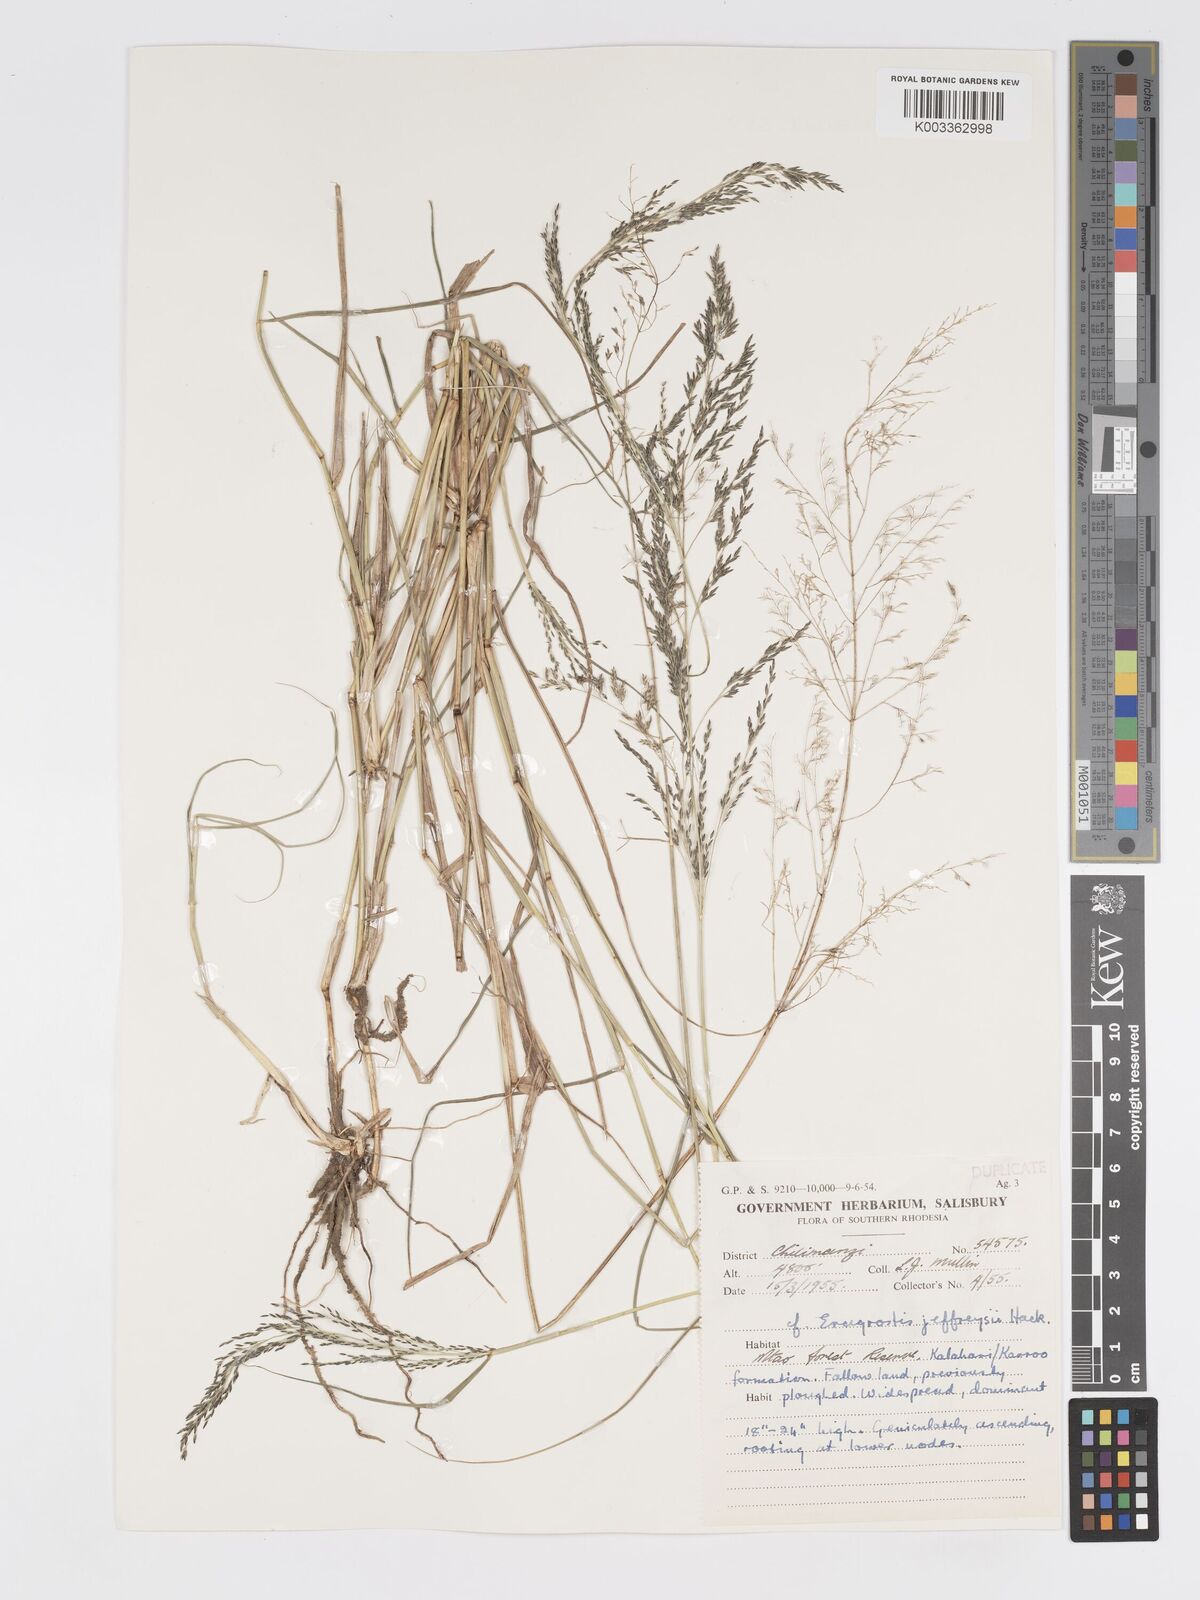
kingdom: Plantae
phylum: Tracheophyta
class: Liliopsida
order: Poales
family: Poaceae
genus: Eragrostis
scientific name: Eragrostis cylindriflora
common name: Cylinderflower lovegrass
